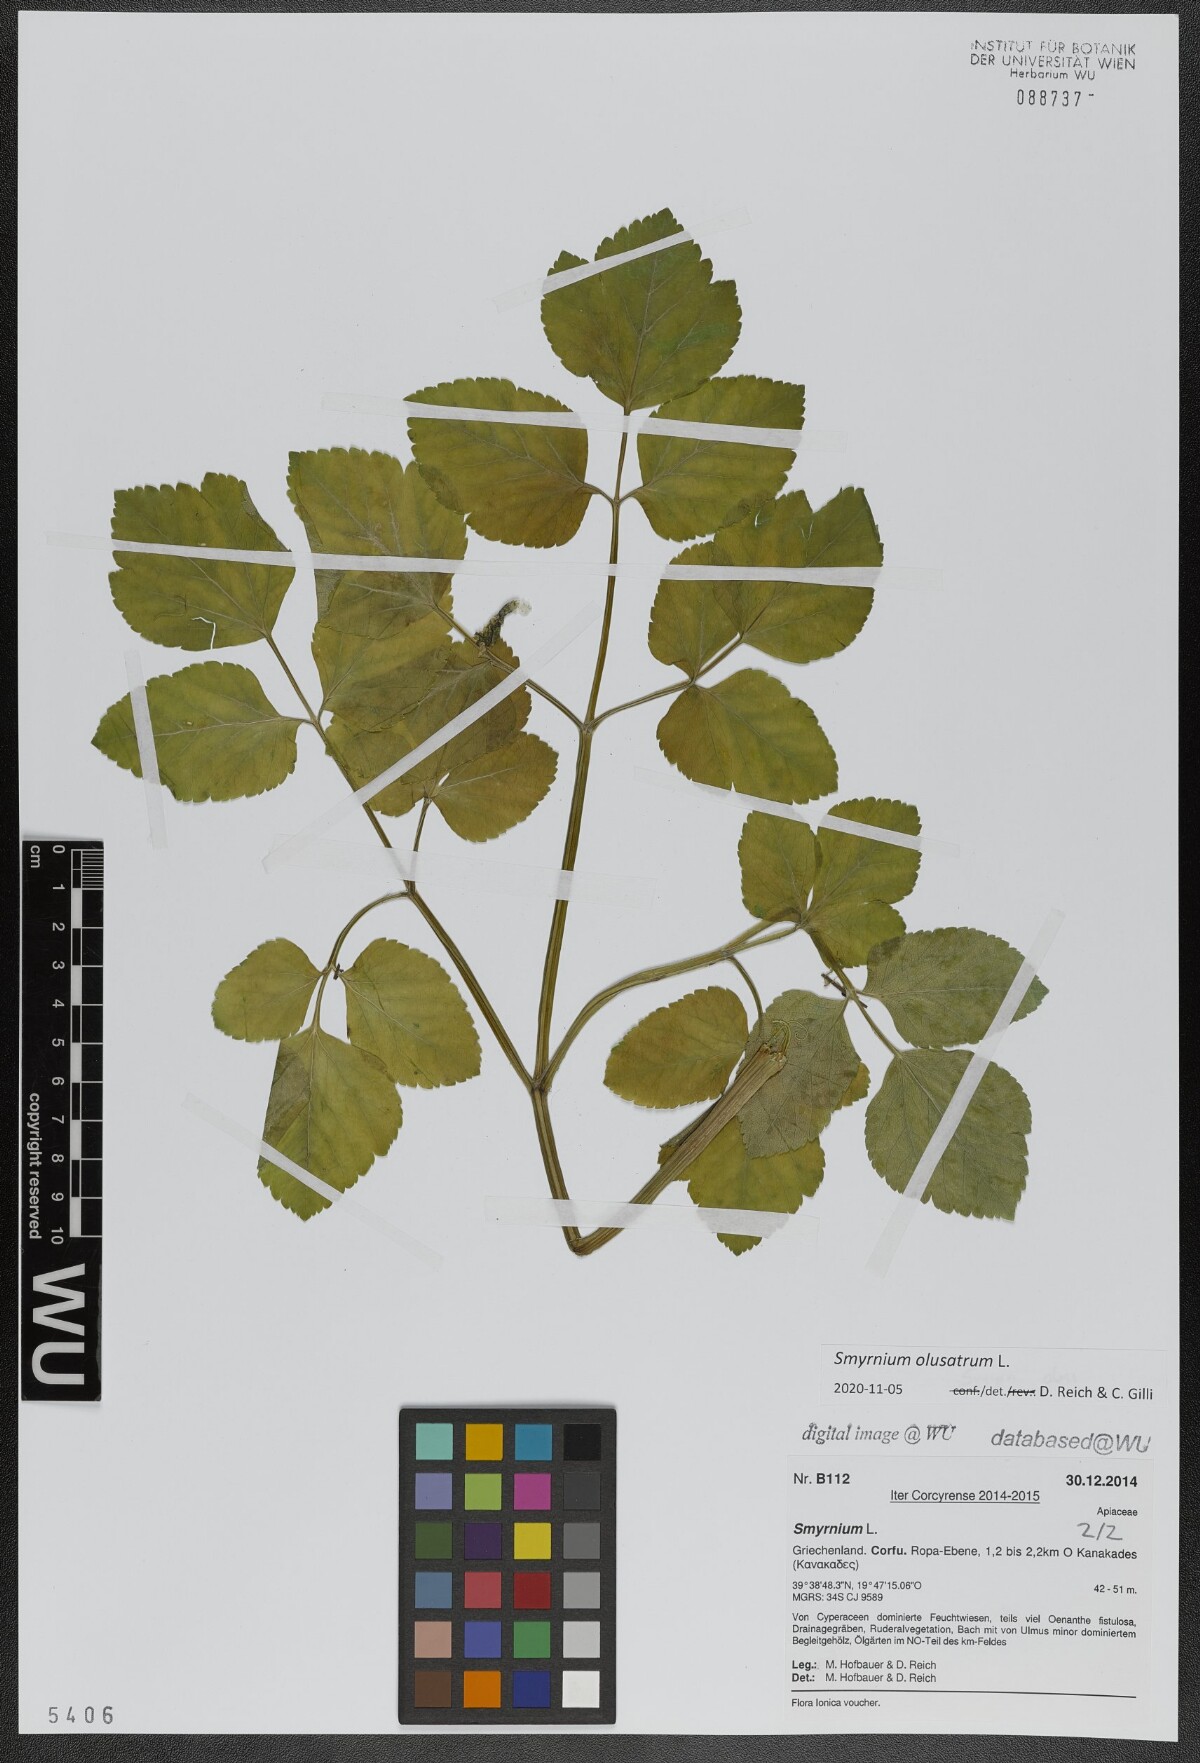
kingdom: Plantae
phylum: Tracheophyta
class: Magnoliopsida
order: Apiales
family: Apiaceae
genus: Smyrnium
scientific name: Smyrnium olusatrum
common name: Alexanders
